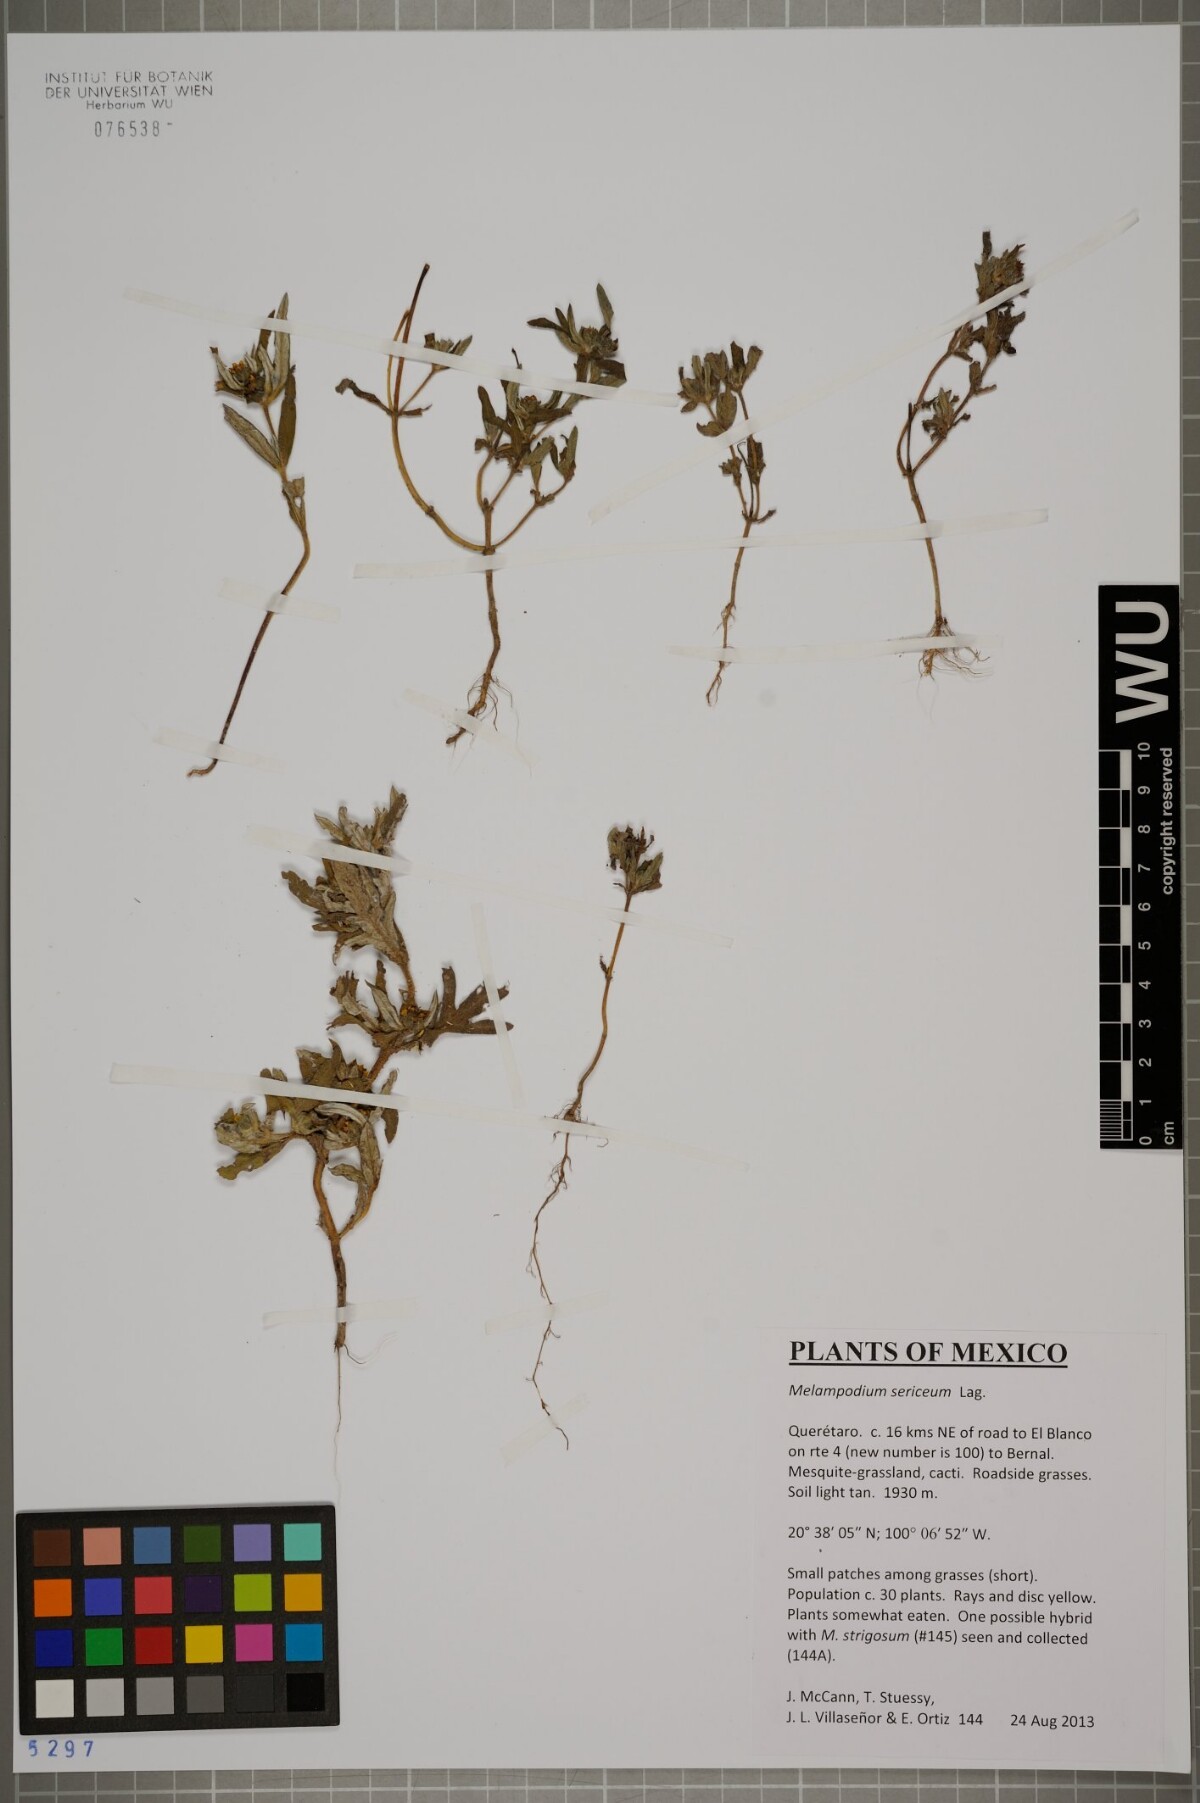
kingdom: Plantae
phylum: Tracheophyta
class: Magnoliopsida
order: Asterales
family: Asteraceae
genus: Melampodium
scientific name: Melampodium sericeum
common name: Rough blackfoot
